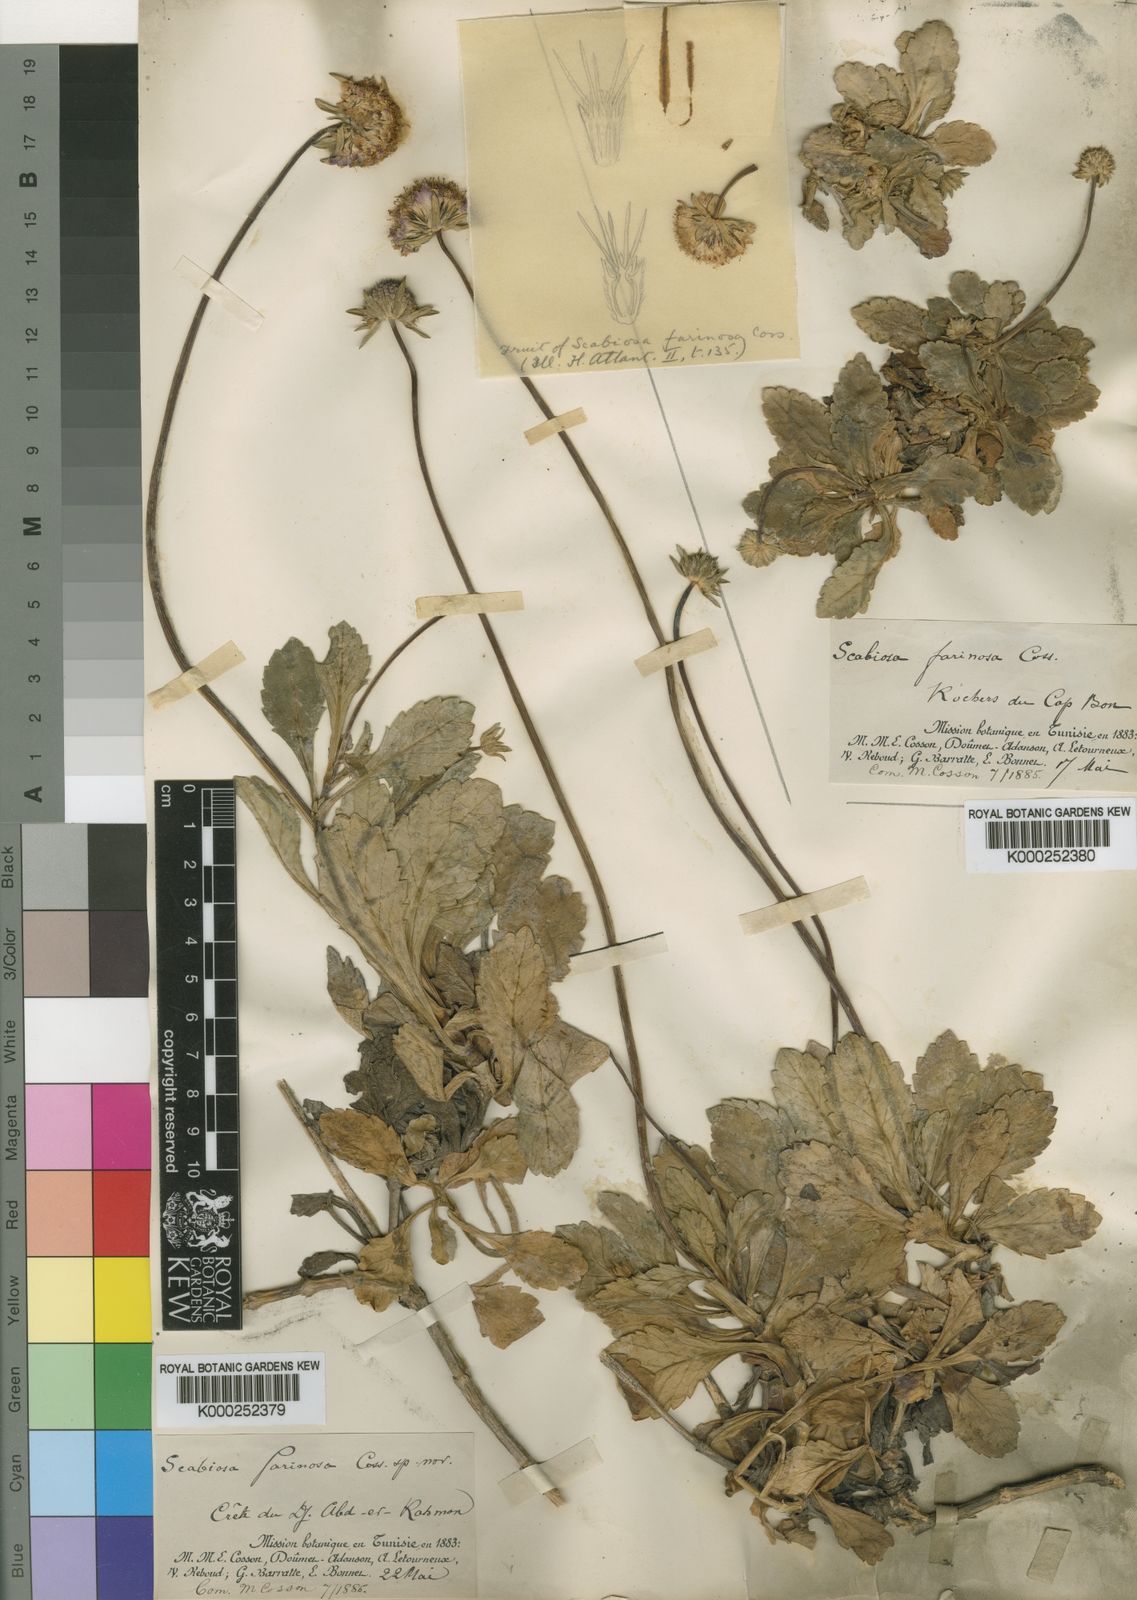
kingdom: Plantae
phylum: Tracheophyta
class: Magnoliopsida
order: Dipsacales
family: Caprifoliaceae
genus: Sixalix
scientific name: Sixalix farinosa
